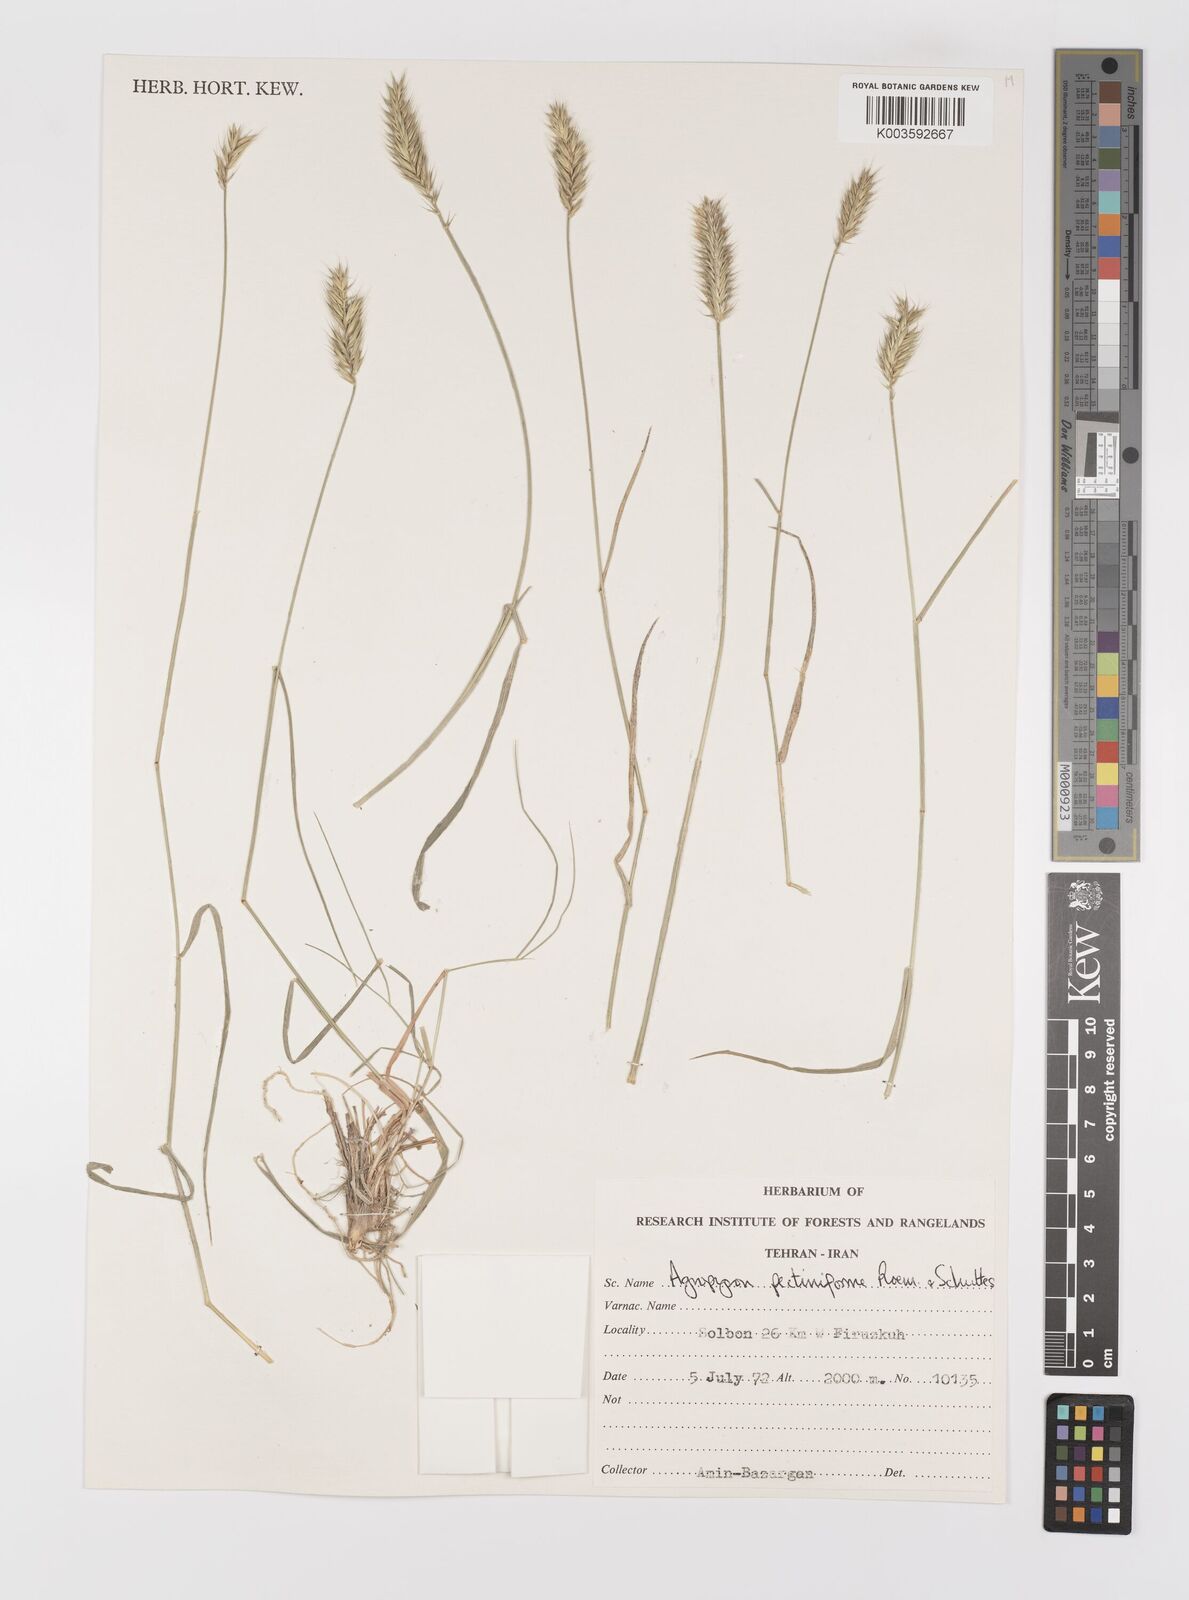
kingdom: Plantae
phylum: Tracheophyta
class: Liliopsida
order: Poales
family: Poaceae
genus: Agropyron
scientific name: Agropyron
